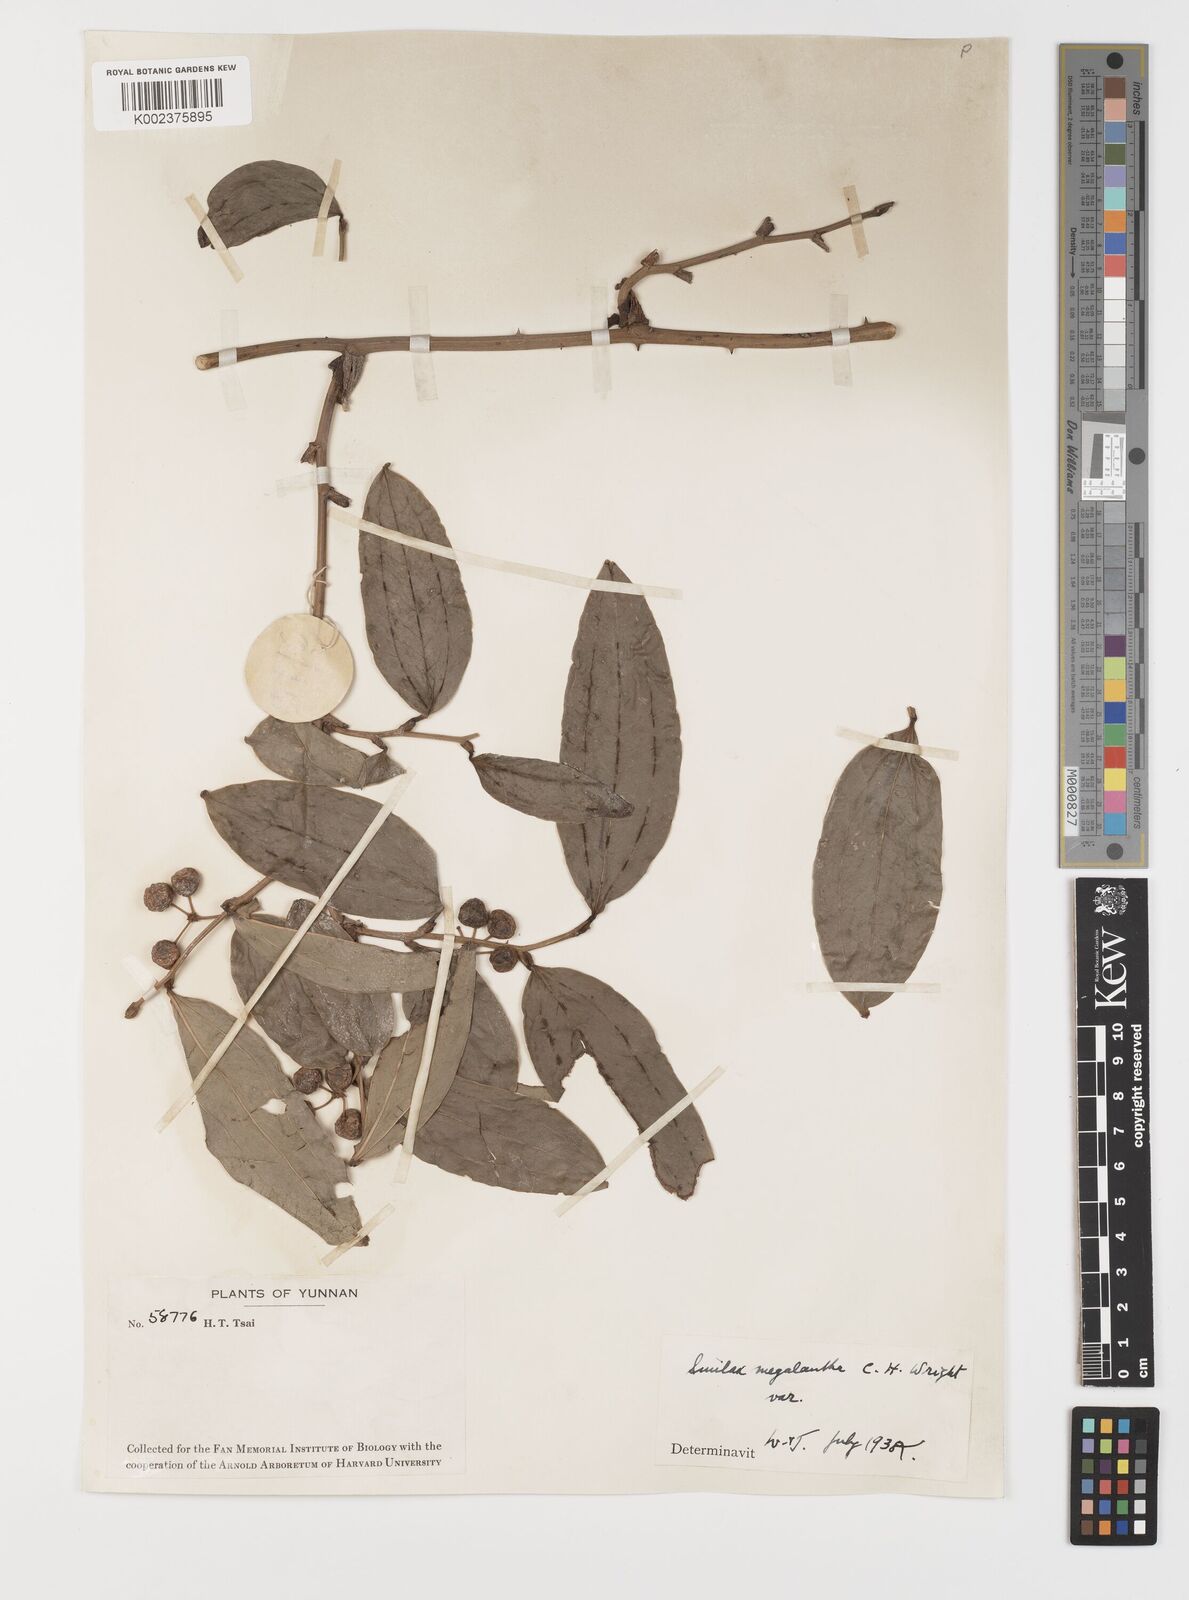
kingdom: Plantae
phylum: Tracheophyta
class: Liliopsida
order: Liliales
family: Smilacaceae
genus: Smilax
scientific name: Smilax megalantha
